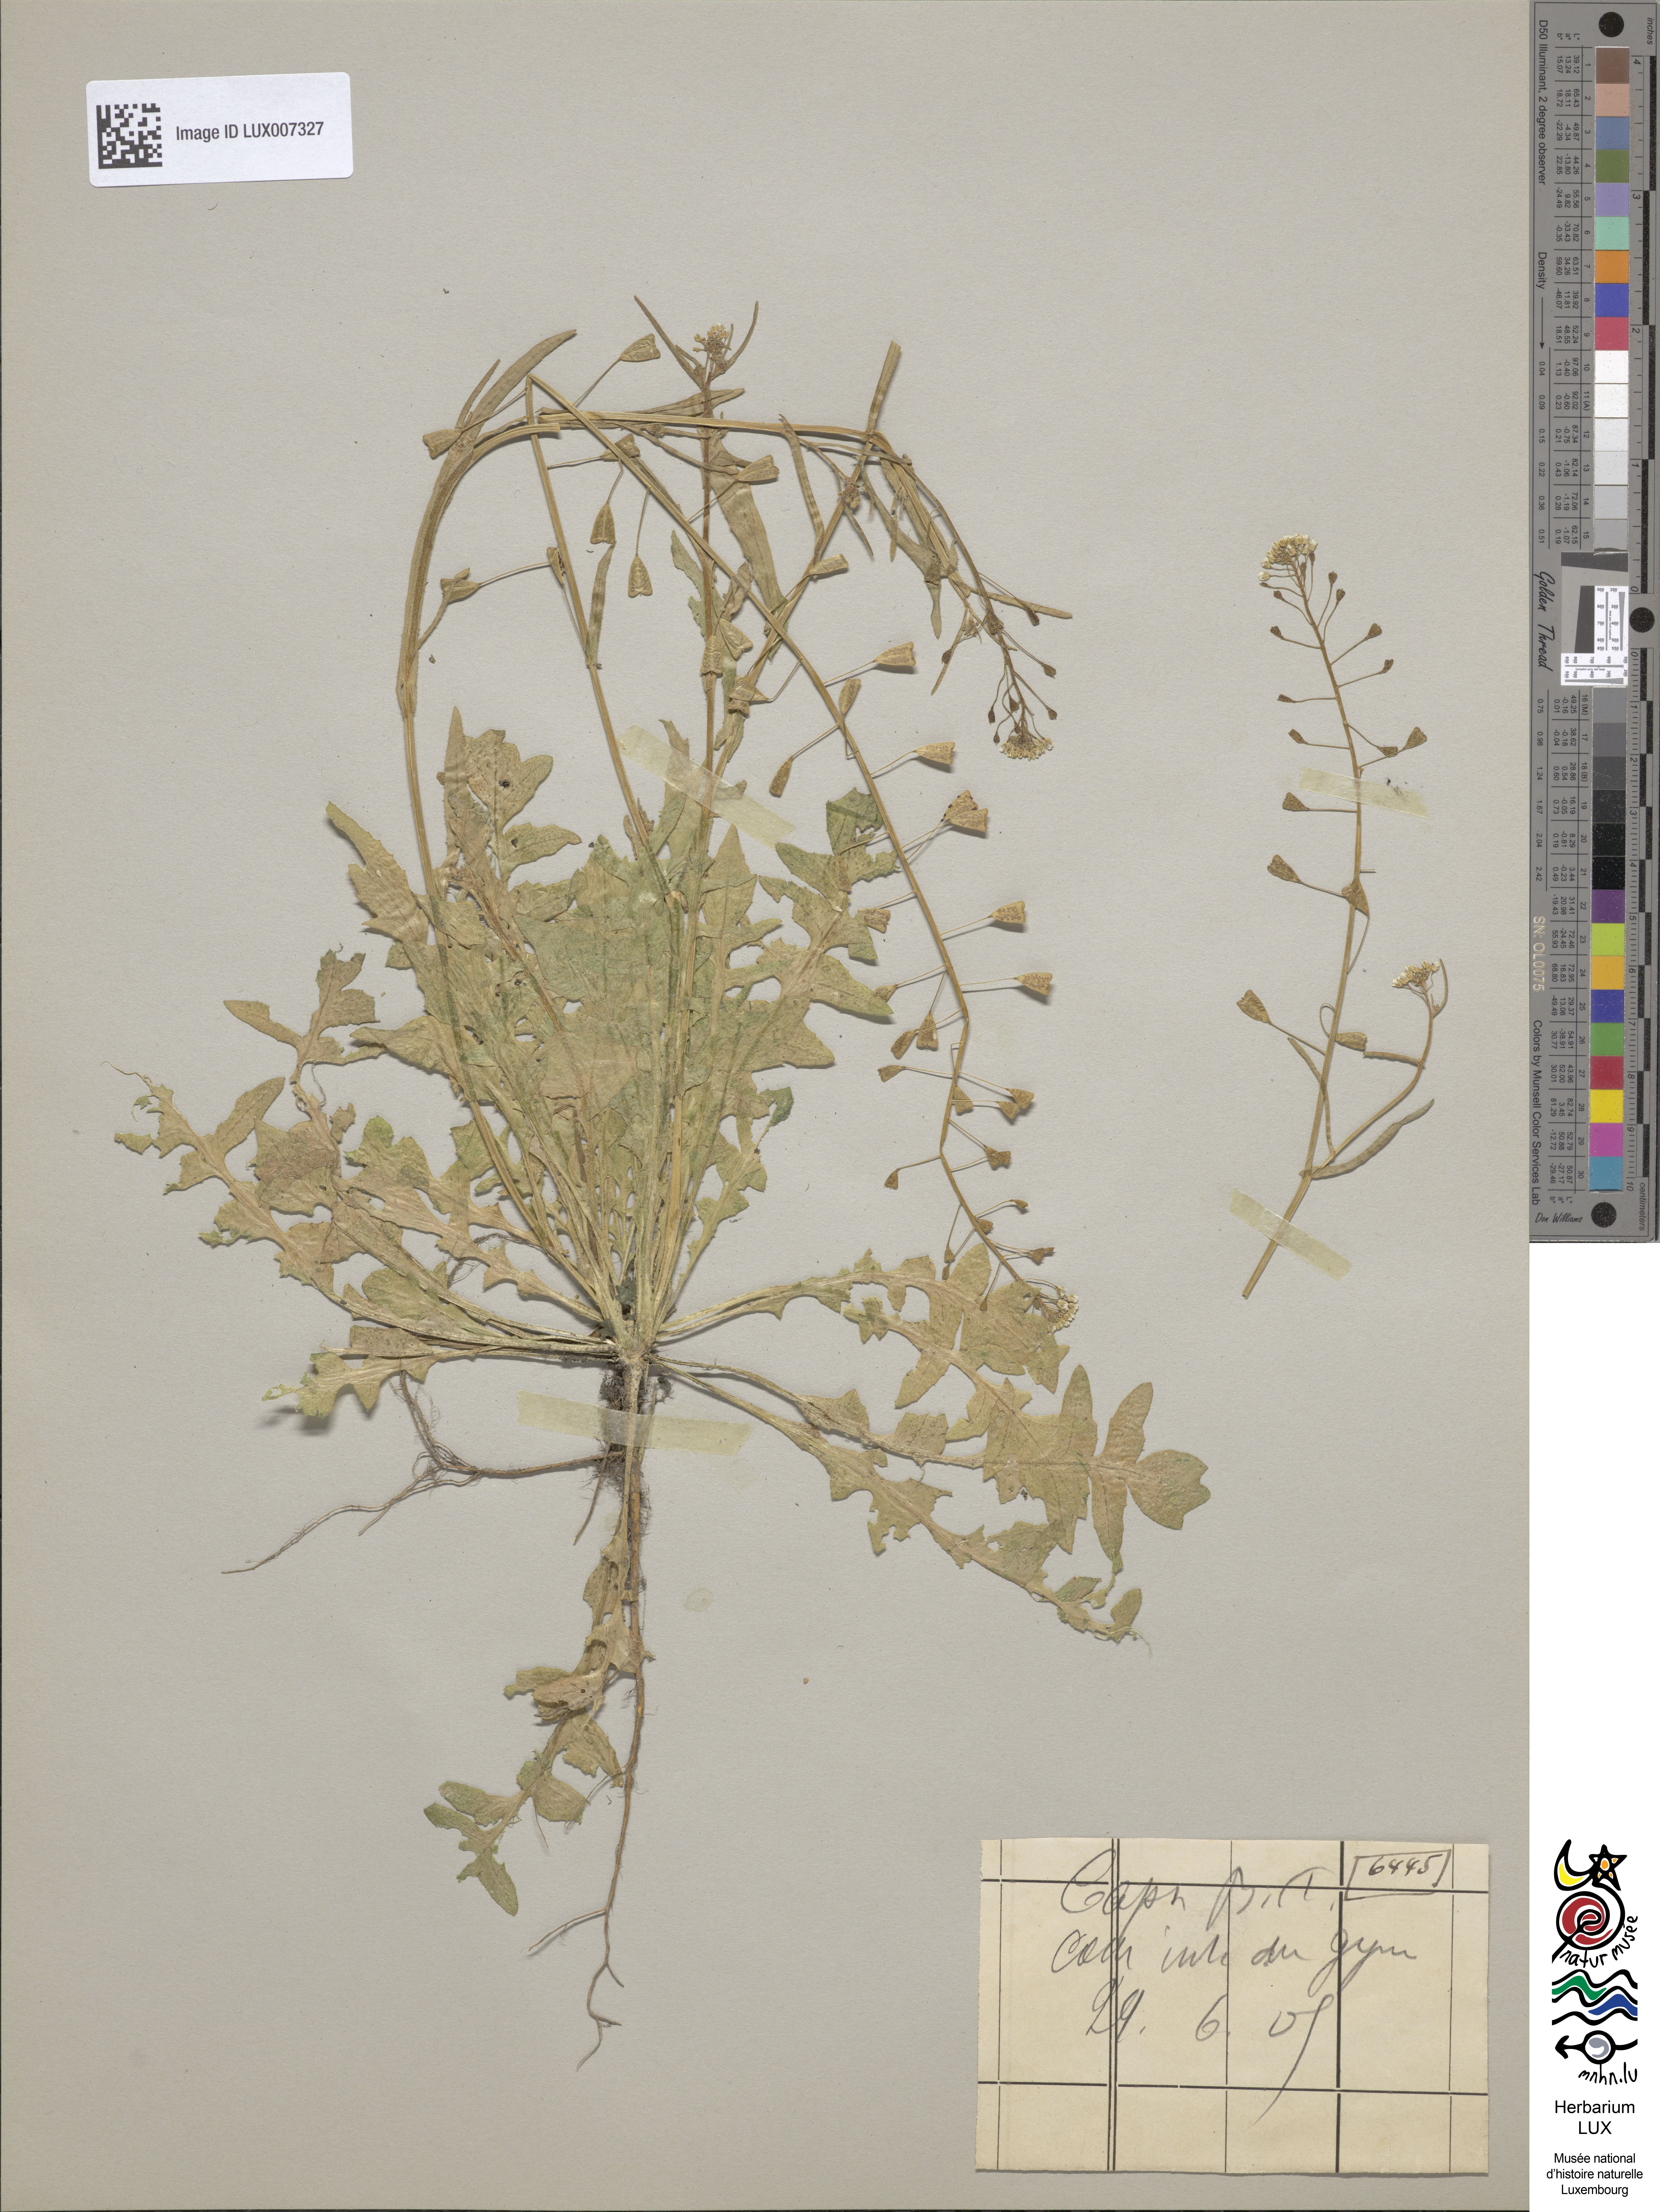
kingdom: Plantae
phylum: Tracheophyta
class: Magnoliopsida
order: Brassicales
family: Brassicaceae
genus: Capsella
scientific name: Capsella bursa-pastoris
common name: Shepherd's purse
